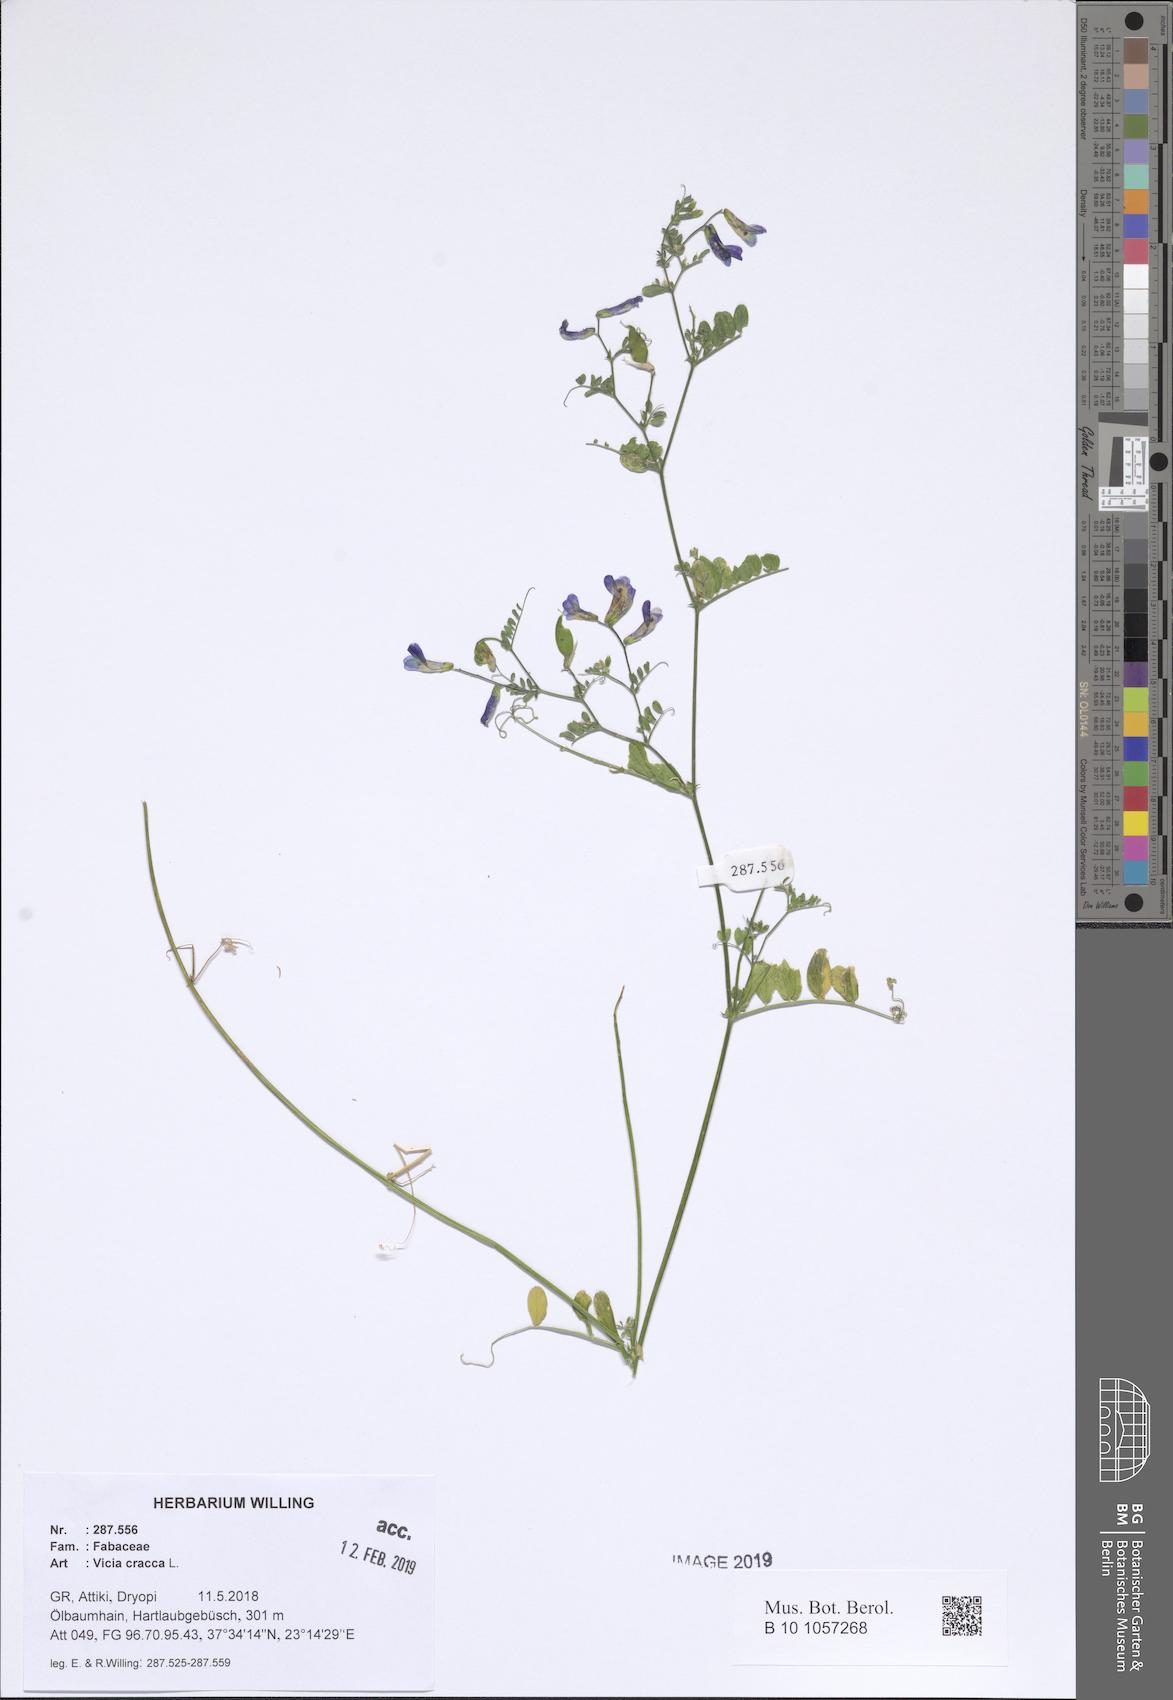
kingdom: Plantae
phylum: Tracheophyta
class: Magnoliopsida
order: Fabales
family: Fabaceae
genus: Vicia
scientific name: Vicia cracca
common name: Bird vetch
